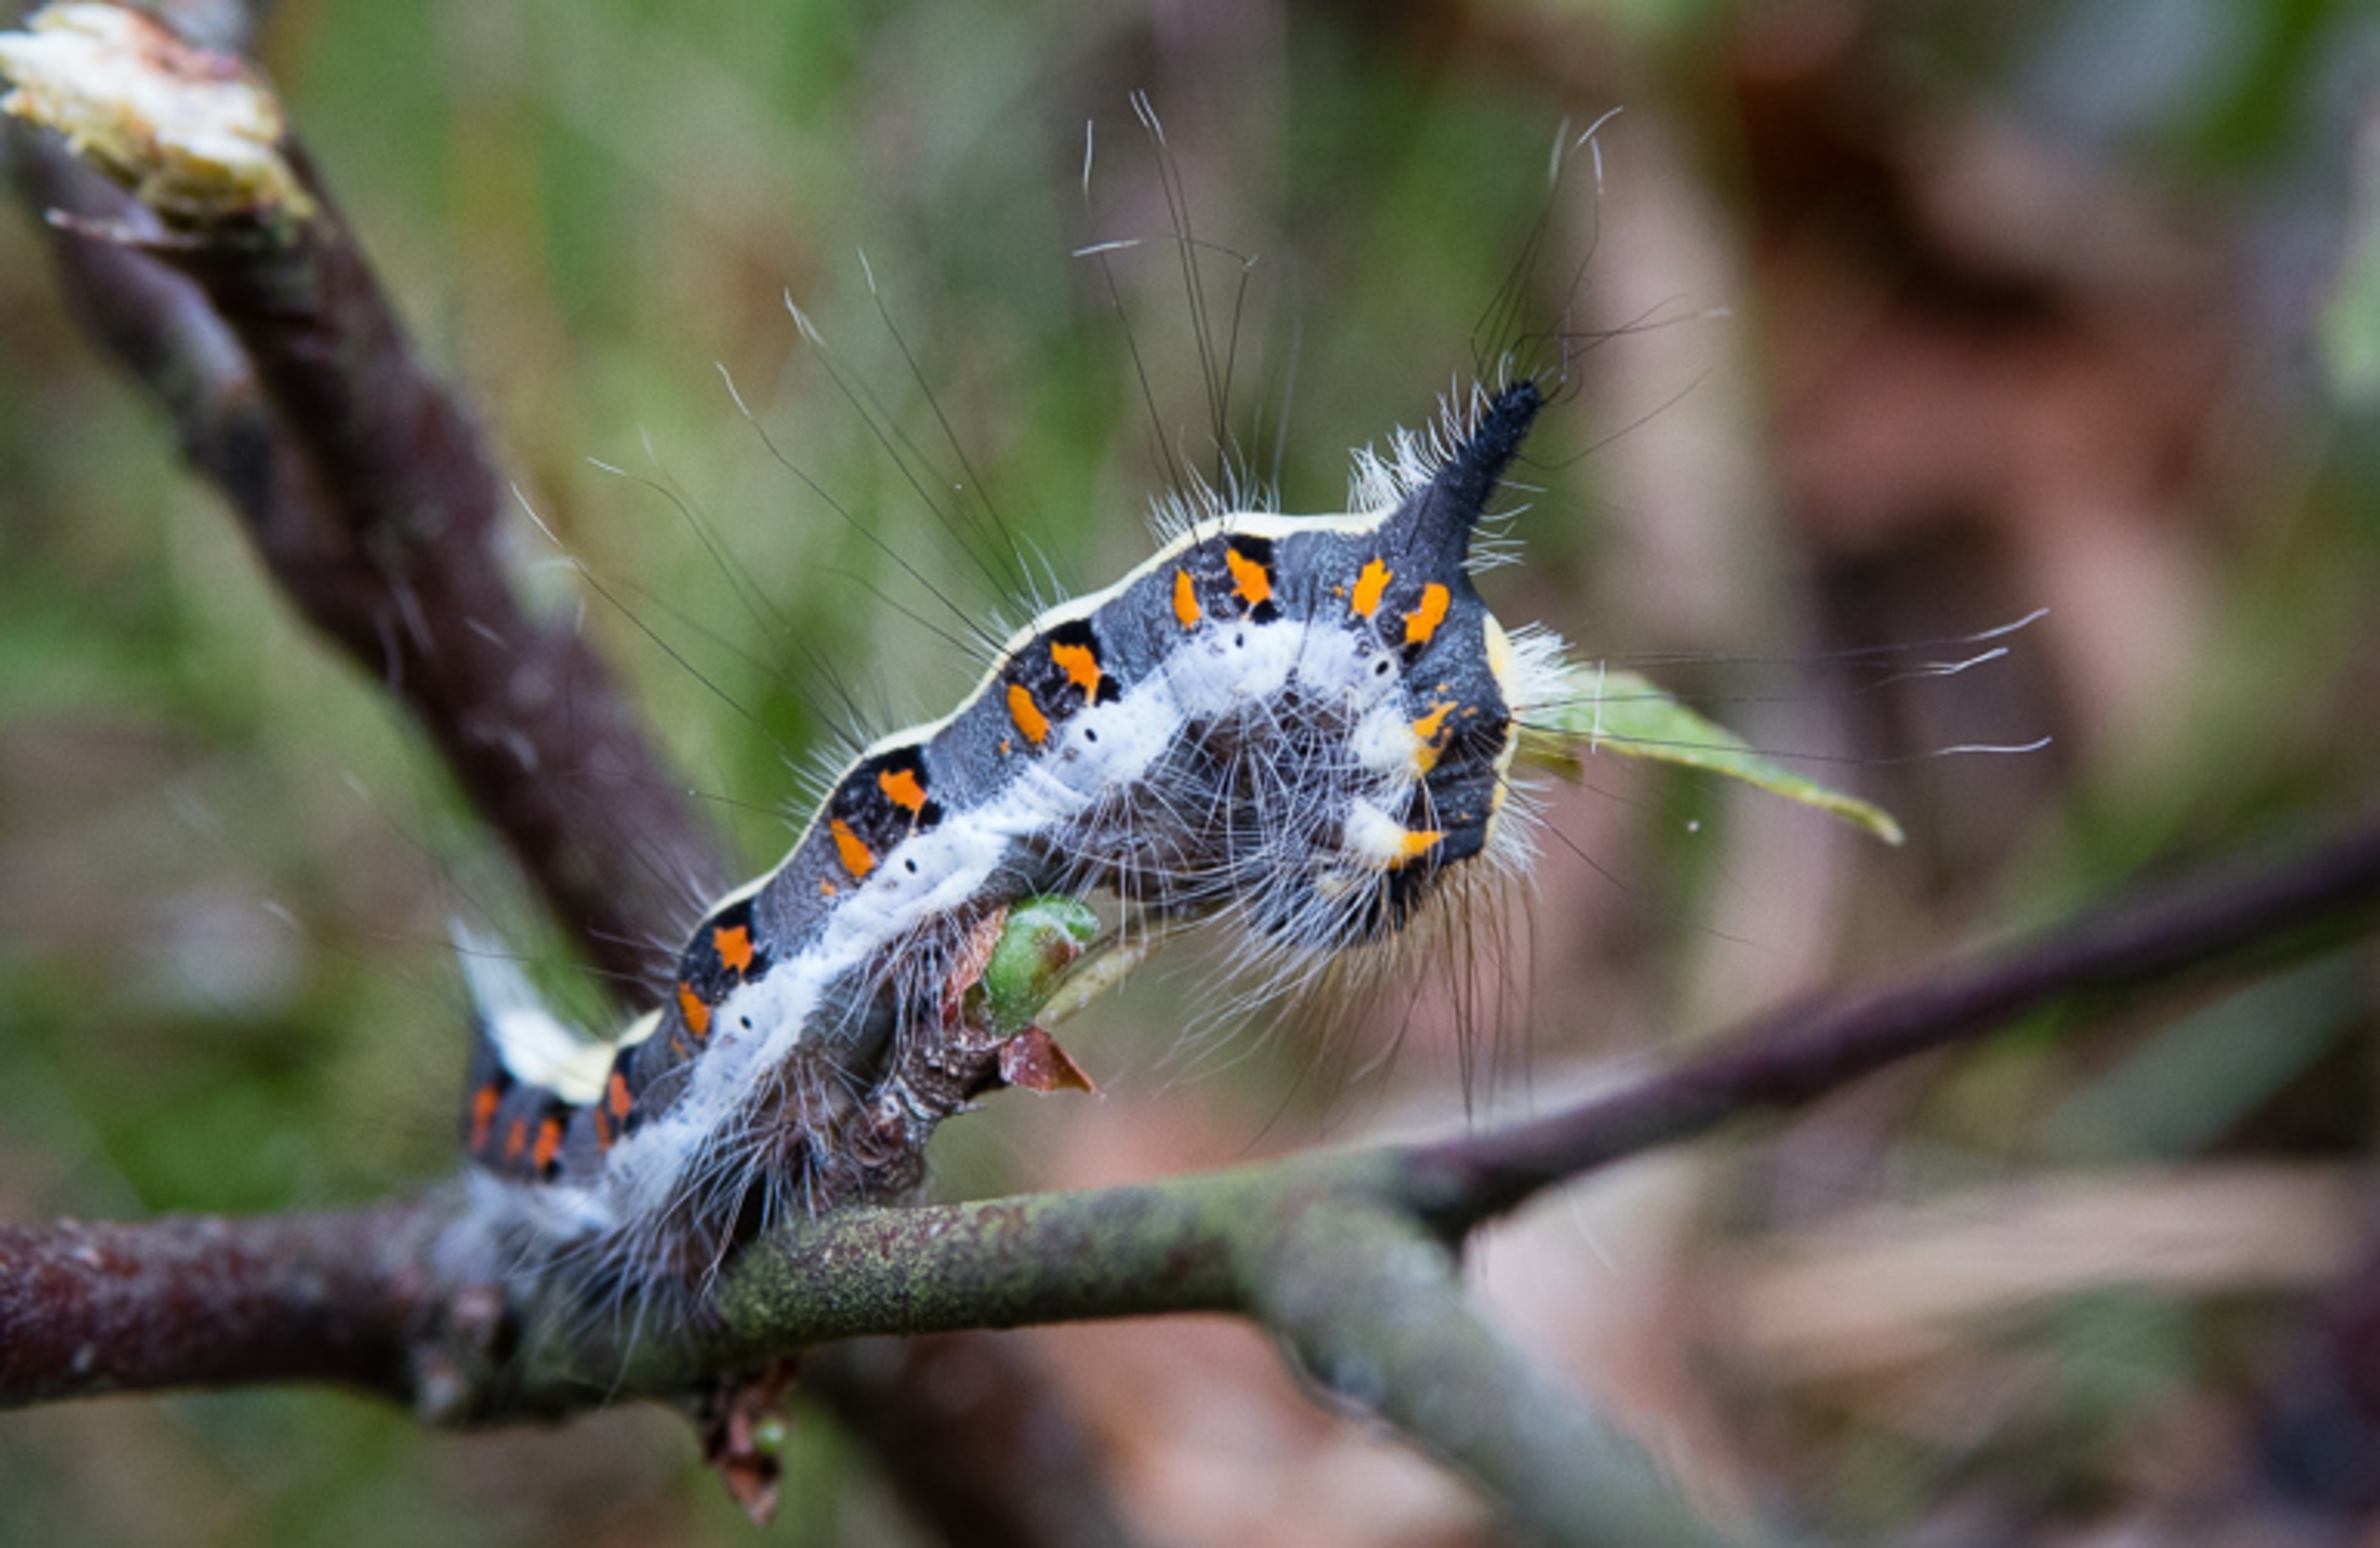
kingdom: Animalia
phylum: Arthropoda
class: Insecta
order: Lepidoptera
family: Noctuidae
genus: Acronicta
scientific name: Acronicta psi
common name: Psi-ugle
